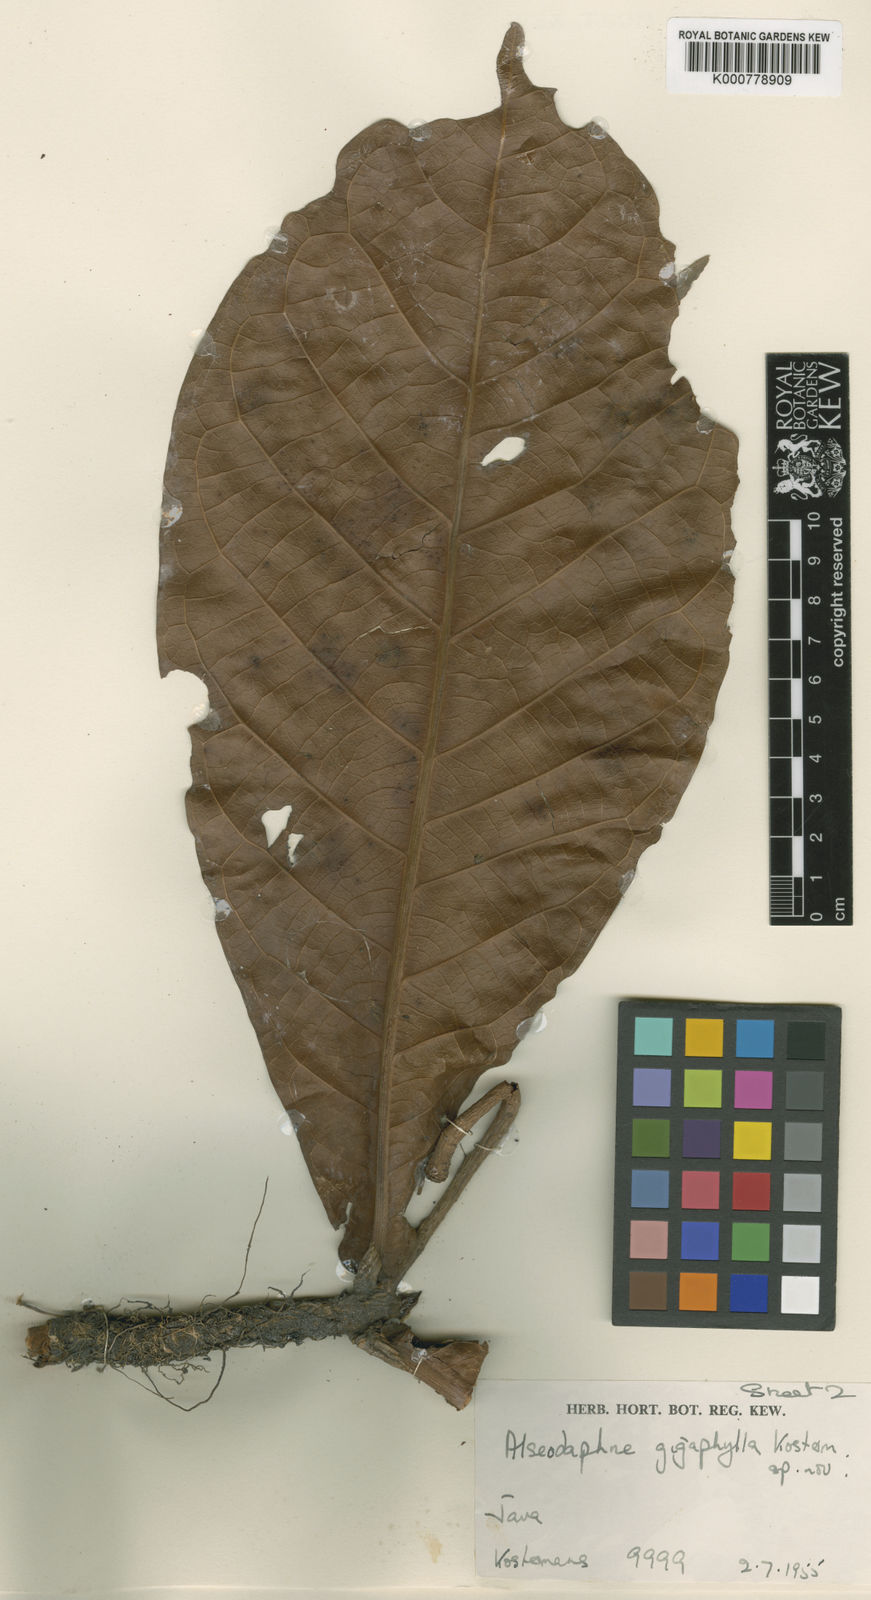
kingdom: Plantae
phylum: Tracheophyta
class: Magnoliopsida
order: Laurales
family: Lauraceae
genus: Nothaphoebe
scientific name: Nothaphoebe gigaphylla
